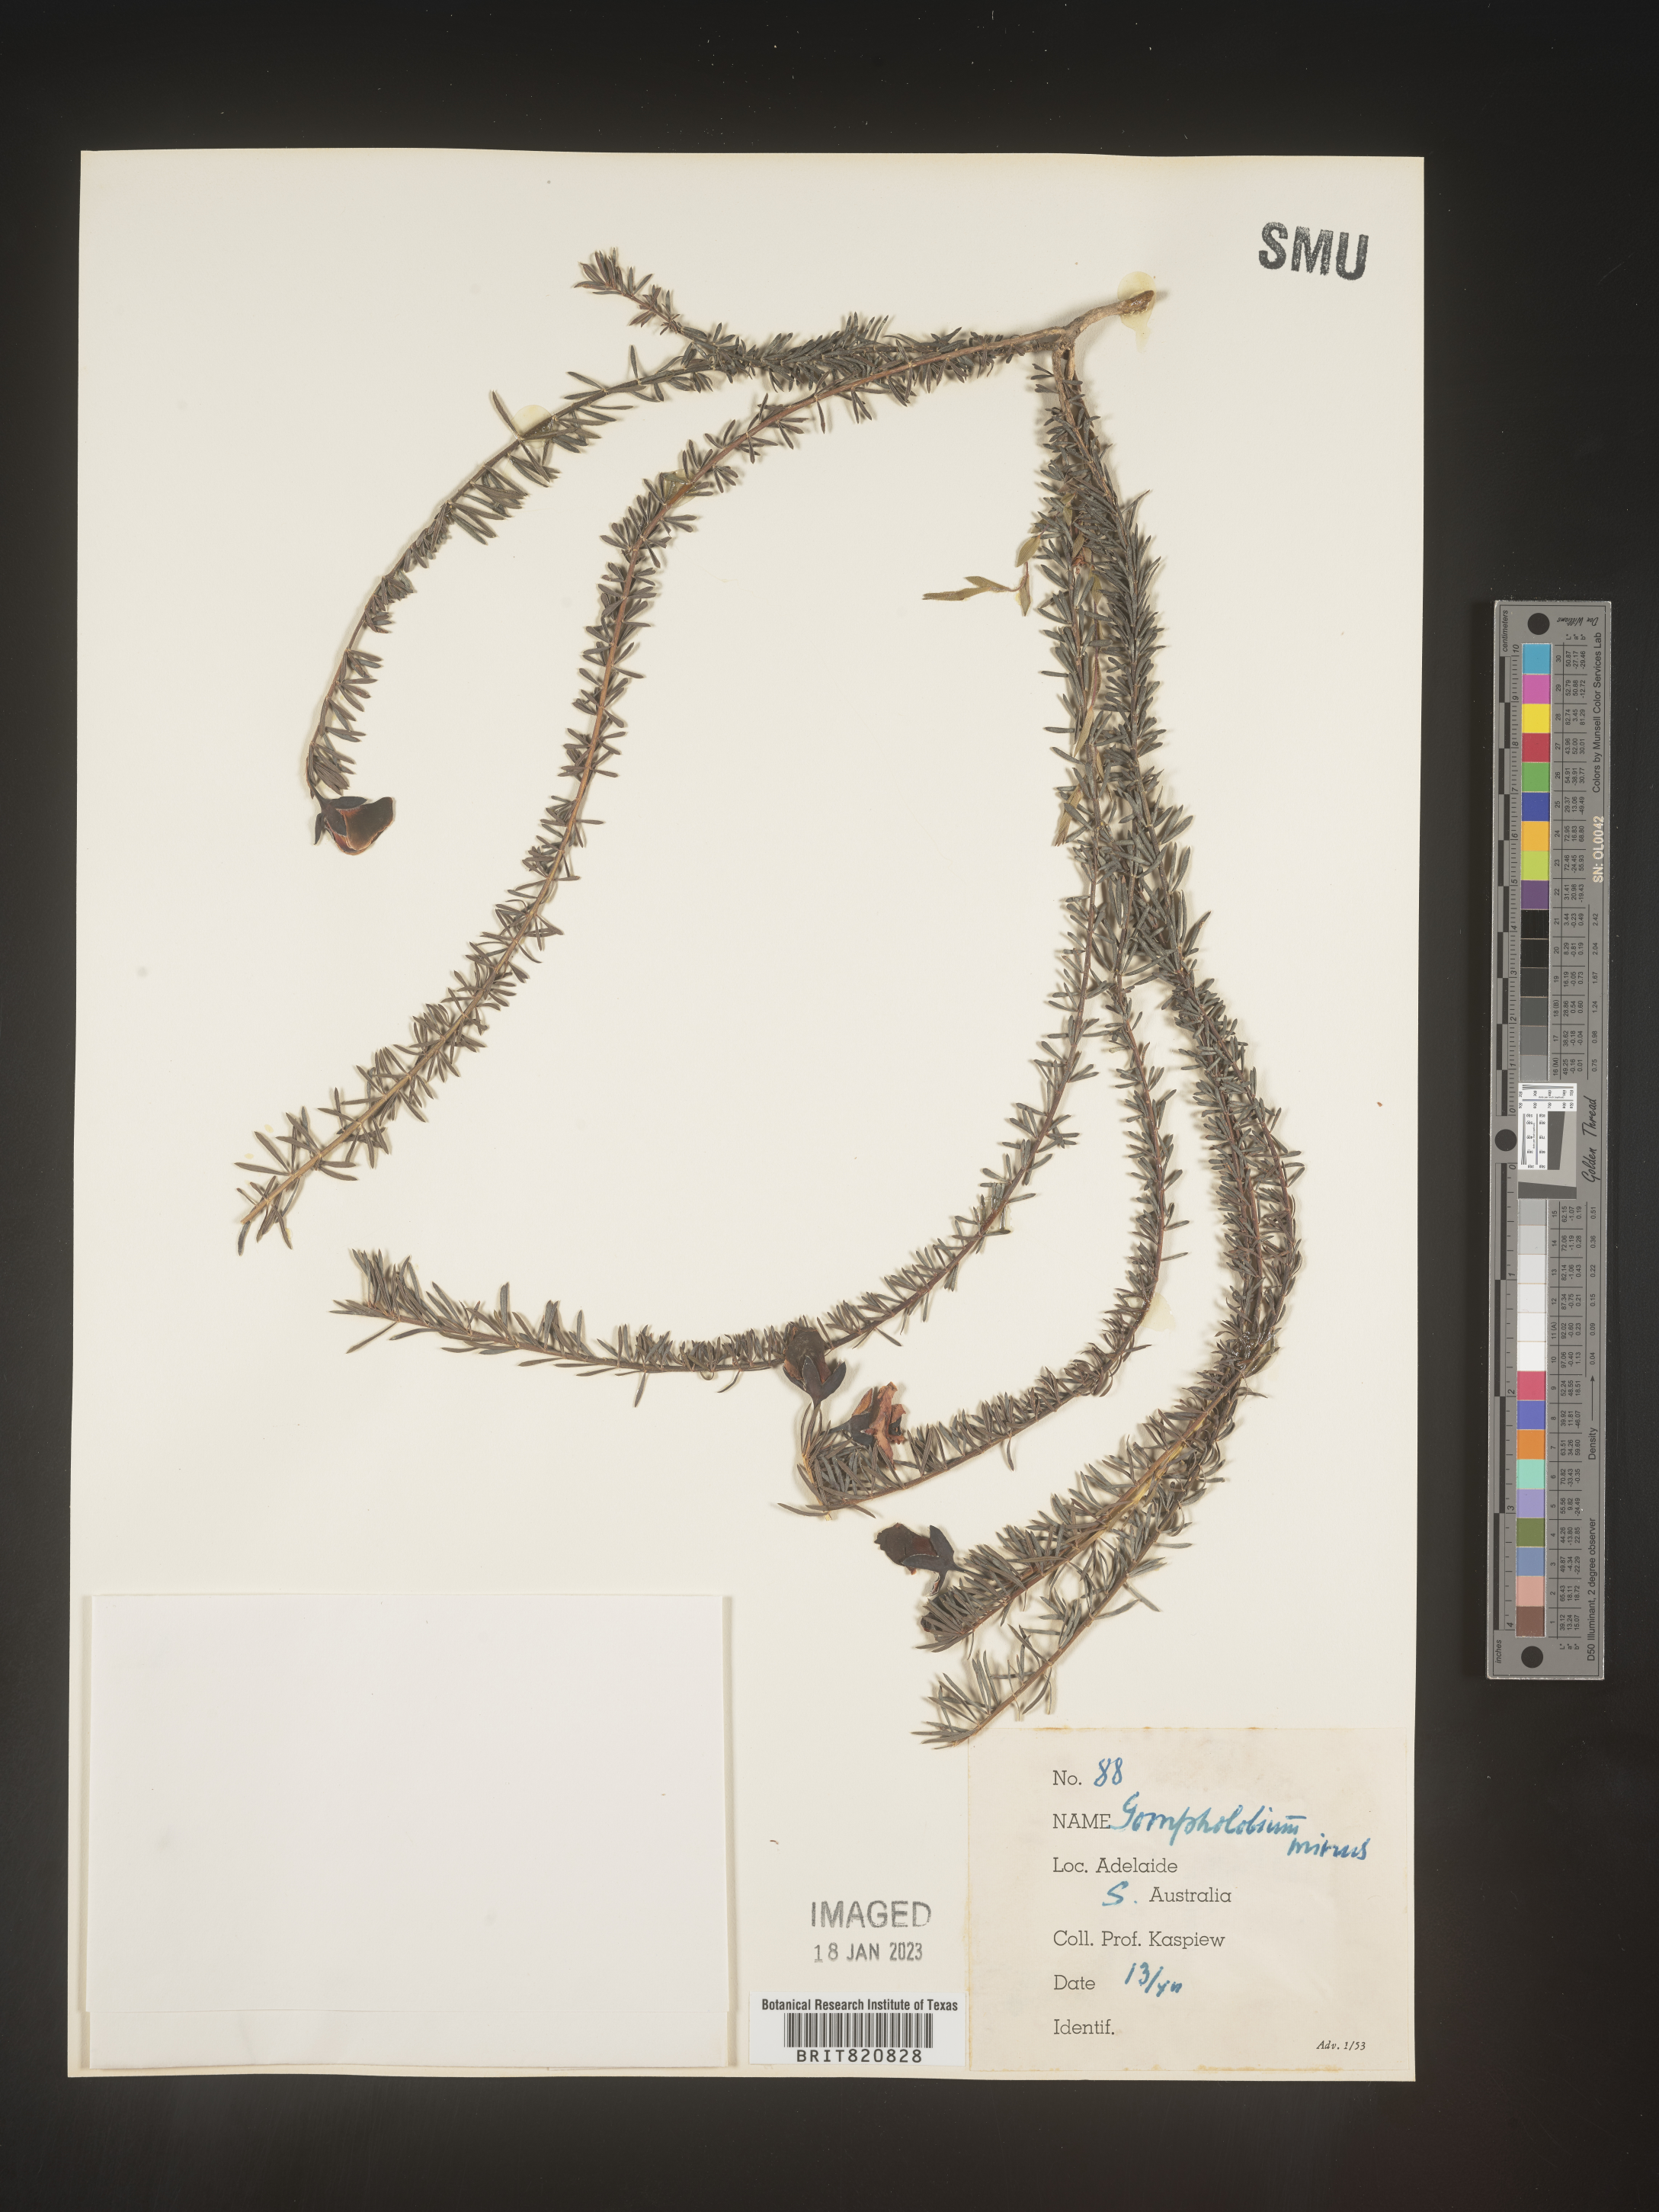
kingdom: Plantae
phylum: Tracheophyta
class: Magnoliopsida
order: Fabales
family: Fabaceae
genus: Gompholobium
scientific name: Gompholobium
